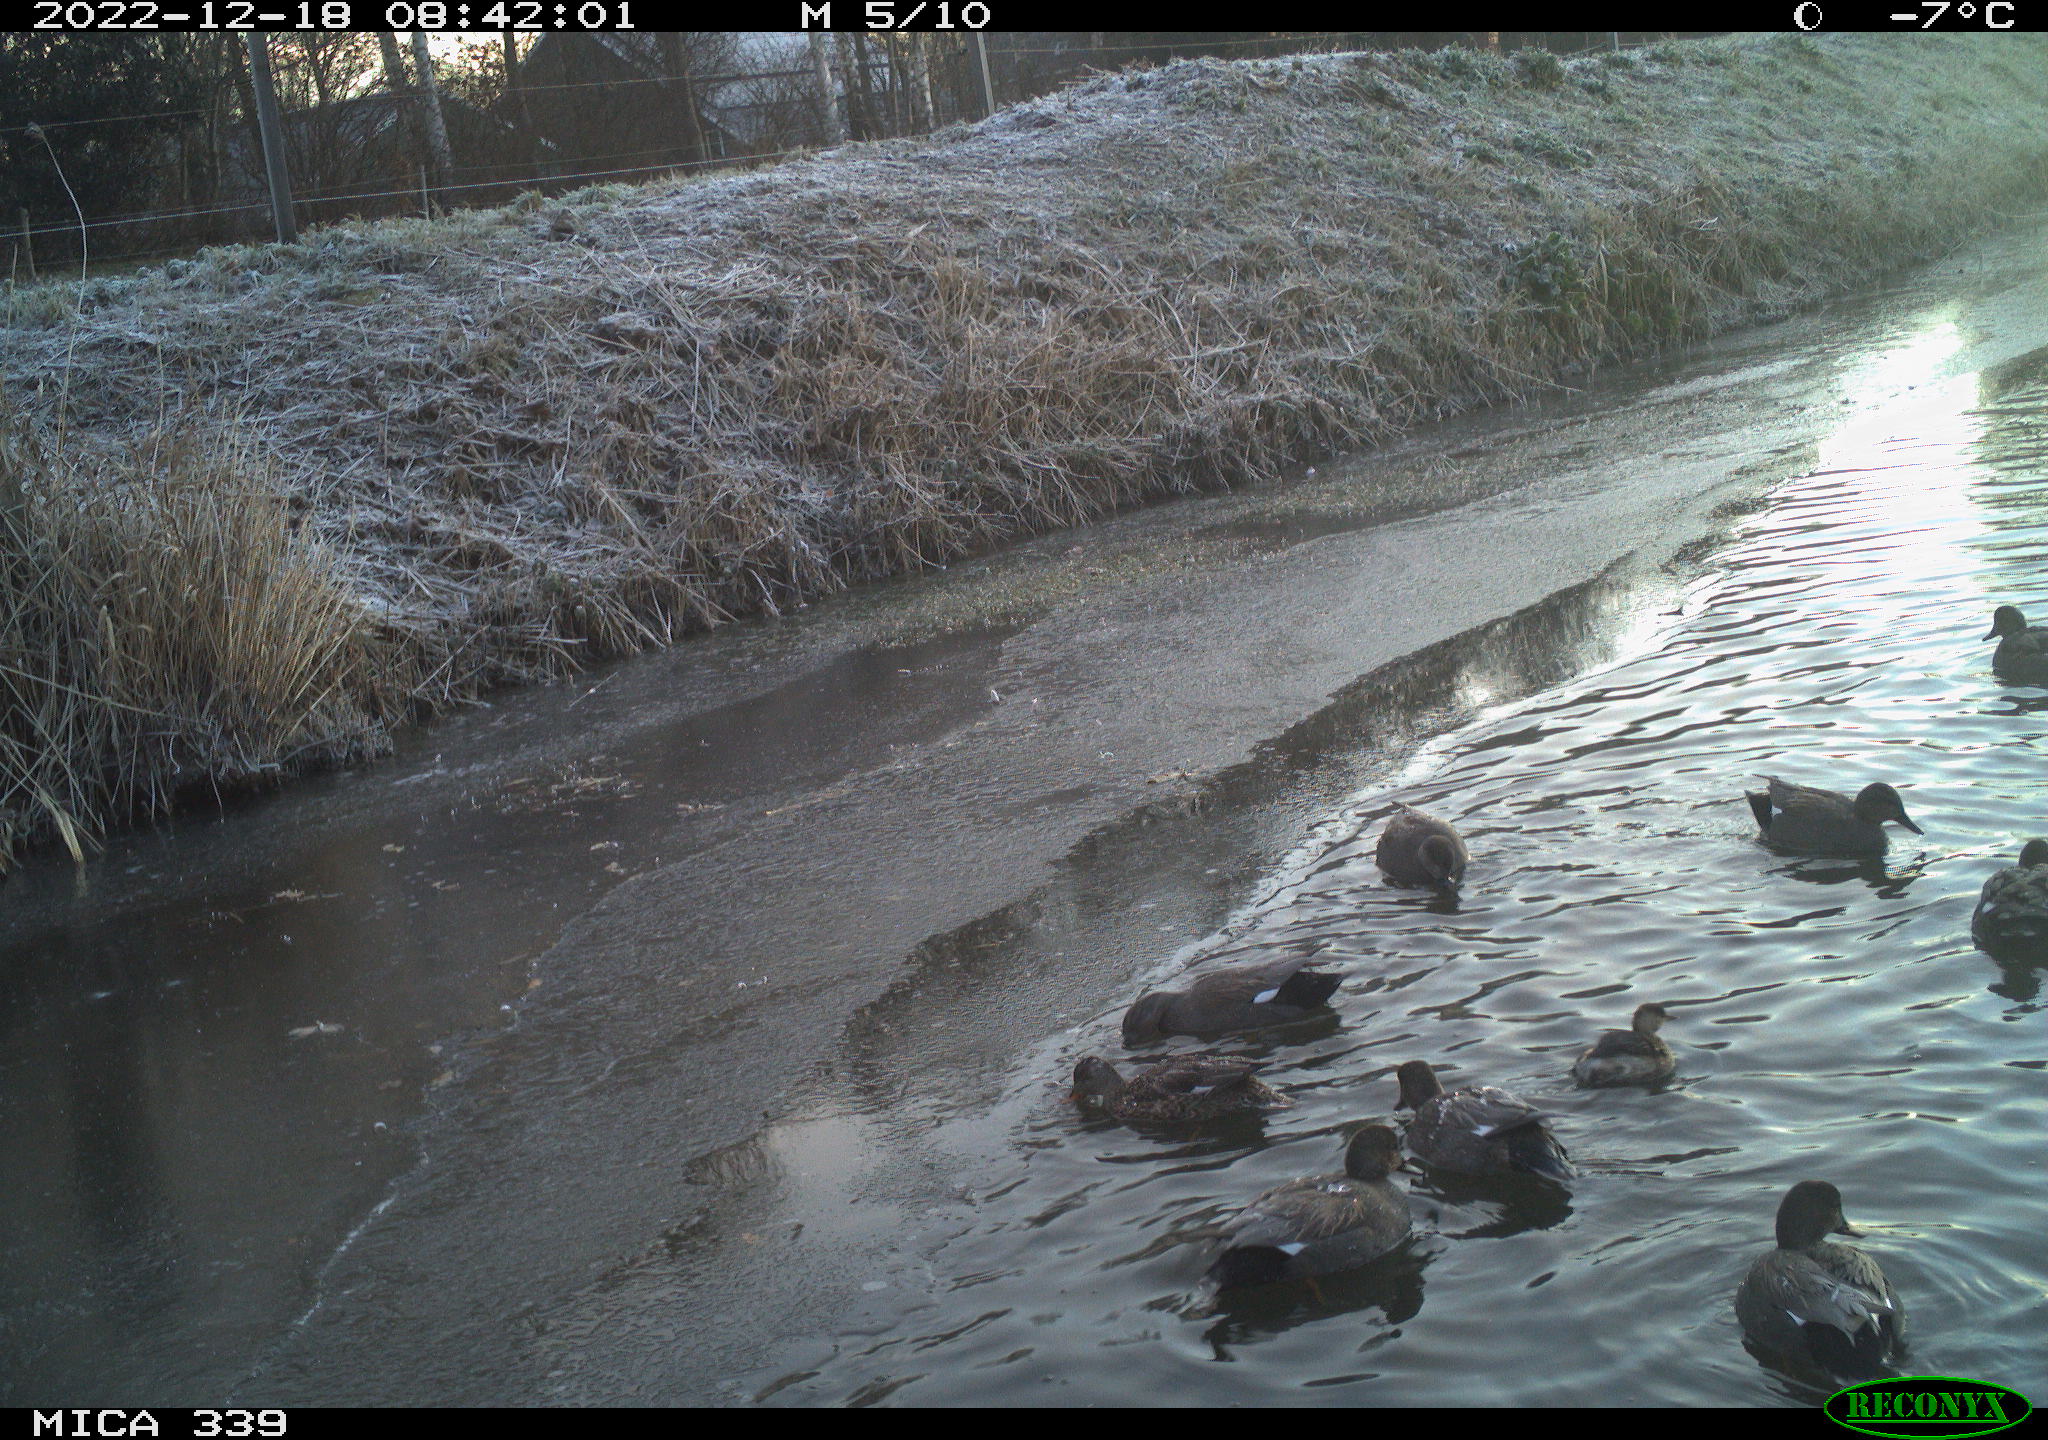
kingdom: Animalia
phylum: Chordata
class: Aves
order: Anseriformes
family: Anatidae
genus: Anas
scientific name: Anas
